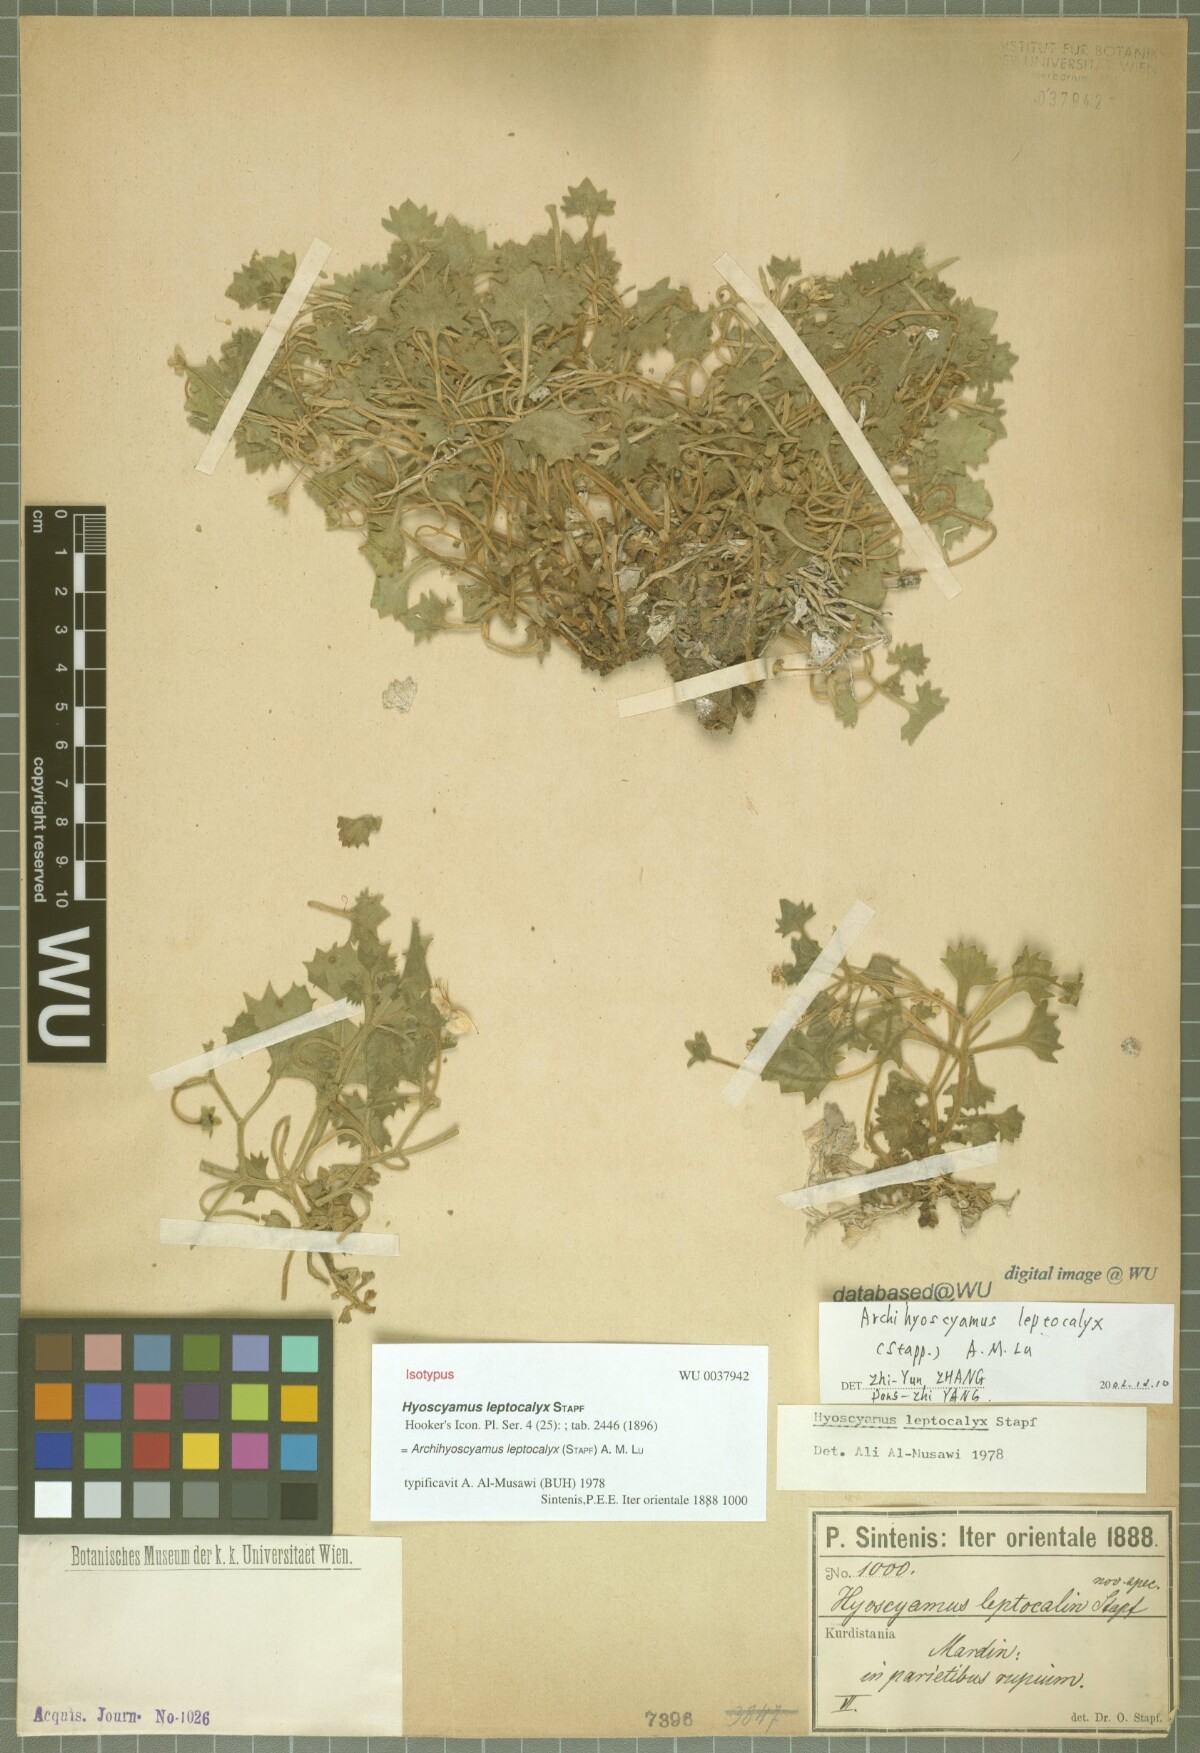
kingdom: Plantae
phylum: Tracheophyta
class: Magnoliopsida
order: Solanales
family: Solanaceae
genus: Hyoscyamus
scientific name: Hyoscyamus leptocalyx
